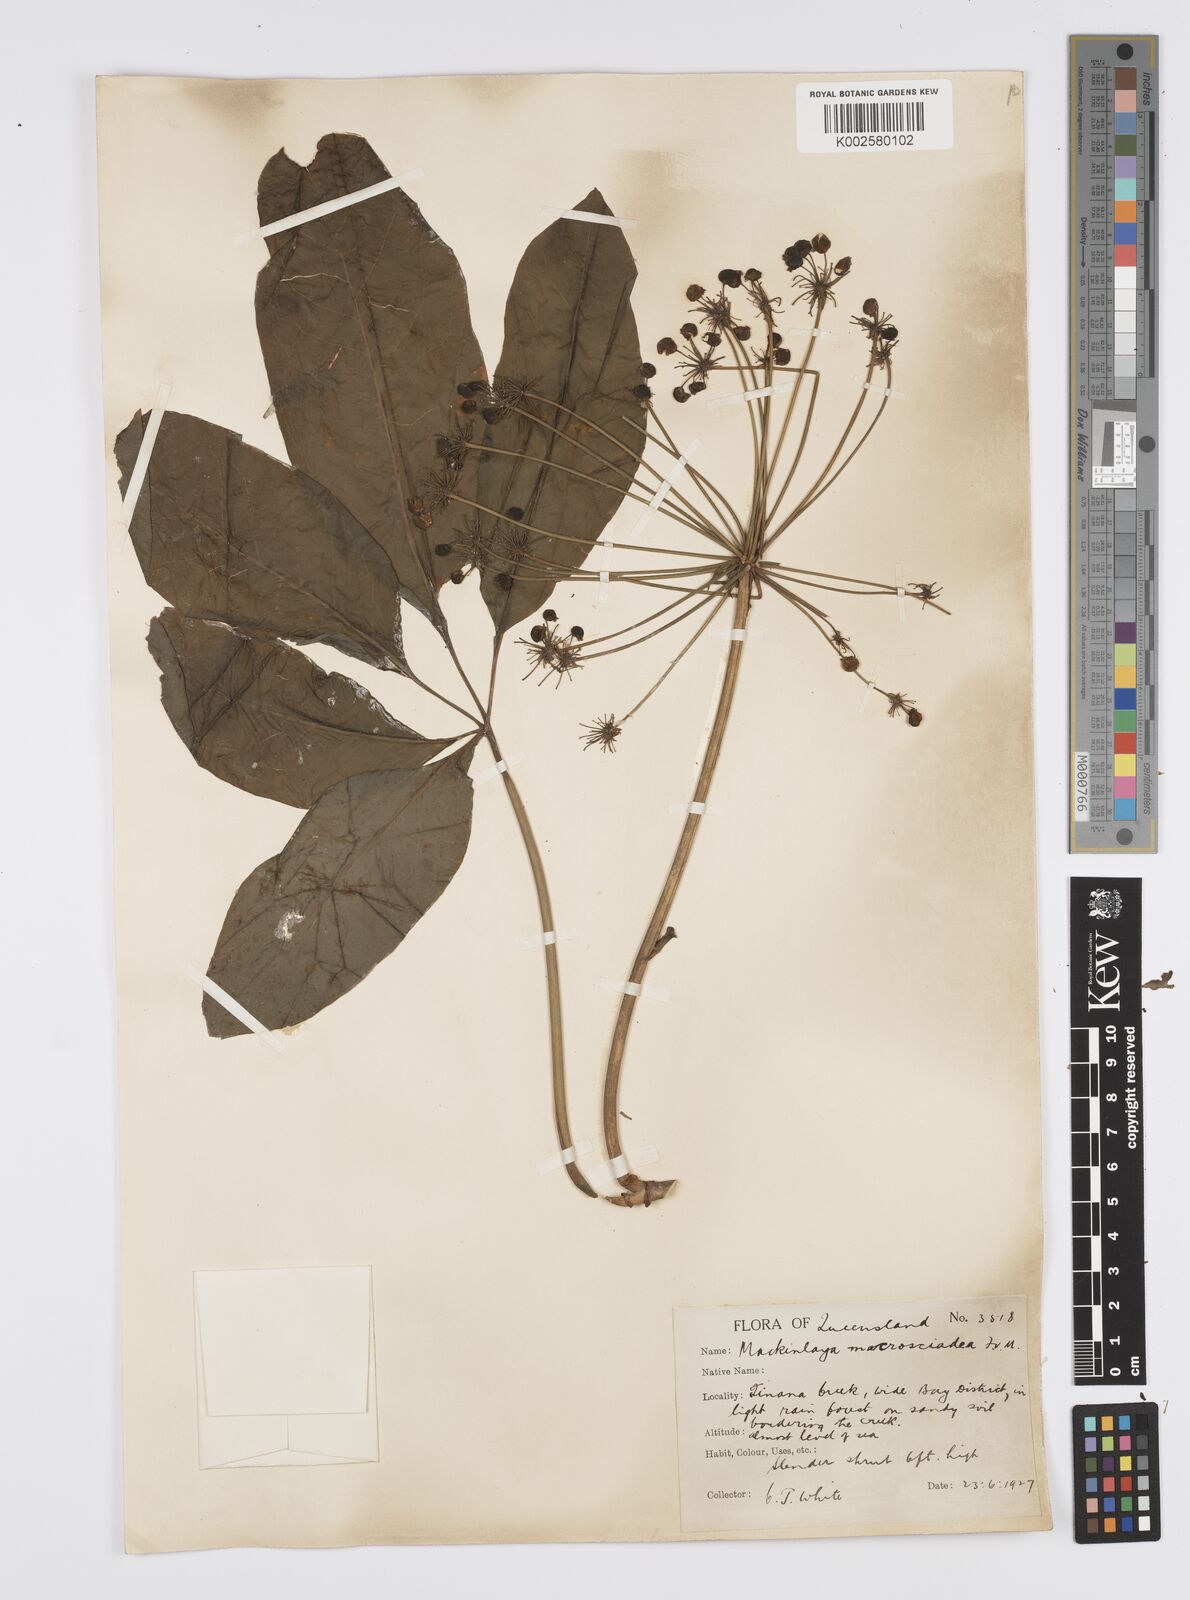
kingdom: Plantae
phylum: Tracheophyta
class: Magnoliopsida
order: Apiales
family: Apiaceae
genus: Mackinlaya
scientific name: Mackinlaya macrosciadea
